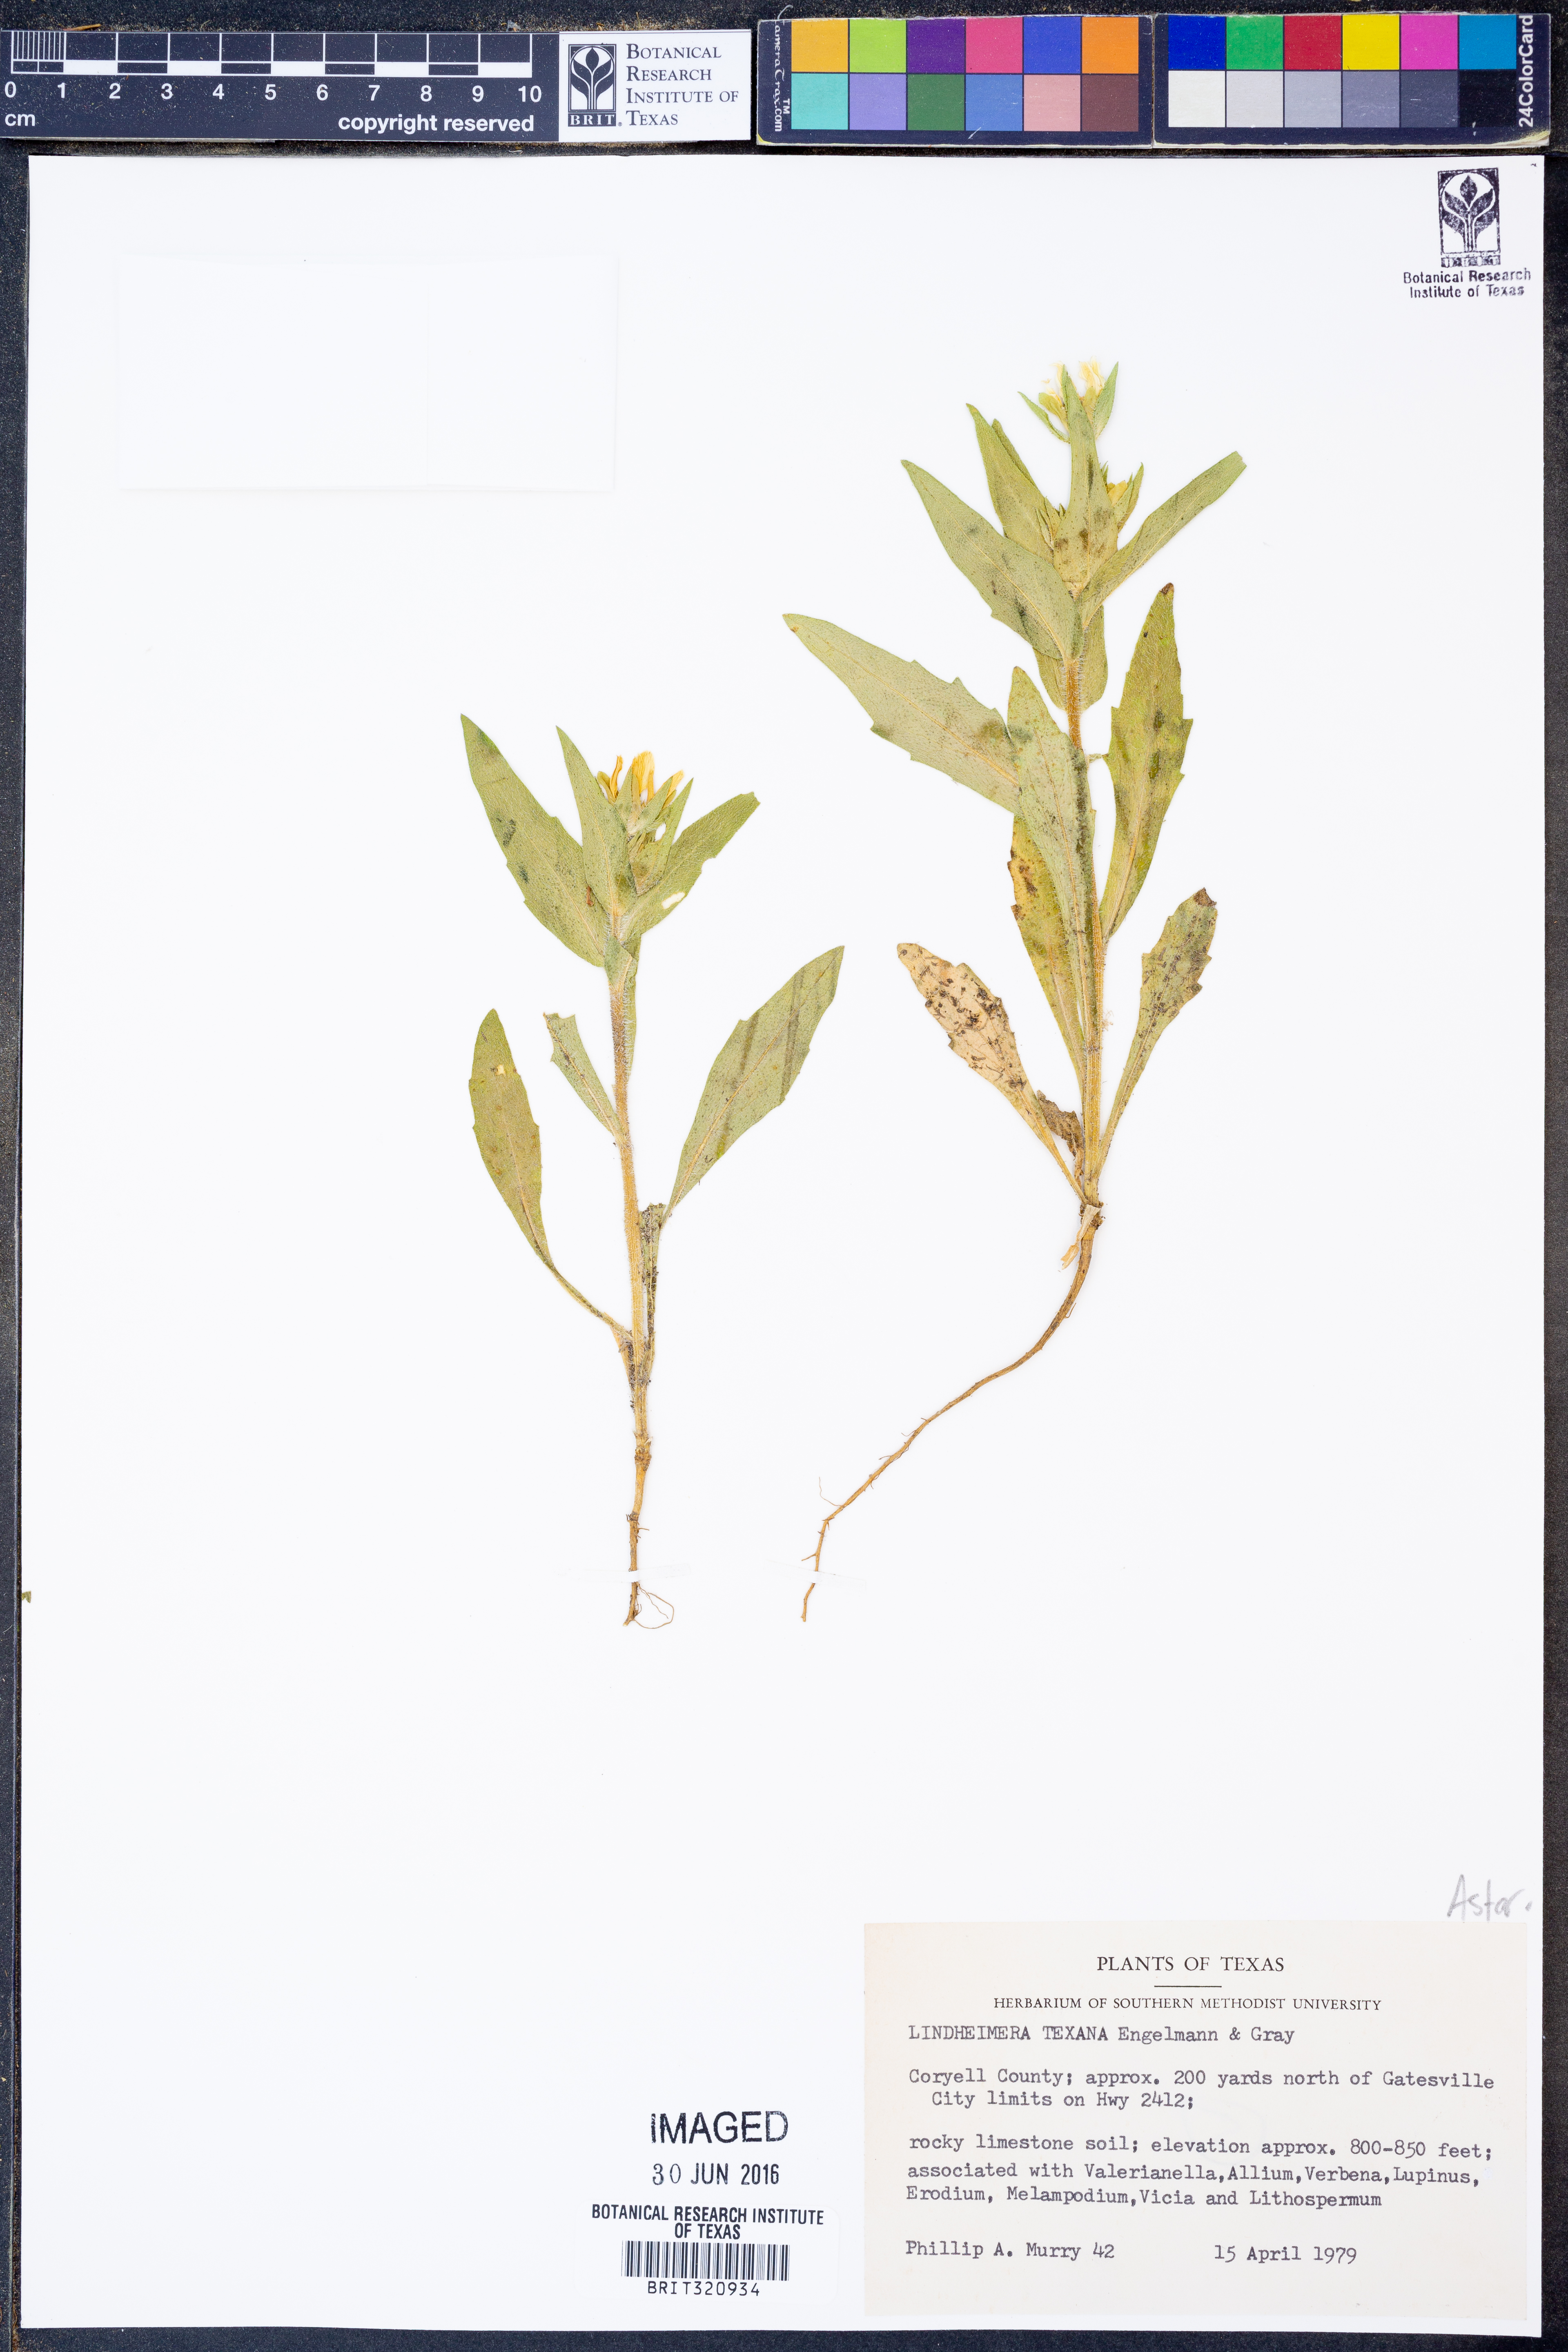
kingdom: Plantae
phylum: Tracheophyta
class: Magnoliopsida
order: Asterales
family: Asteraceae
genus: Lindheimera
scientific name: Lindheimera texana
